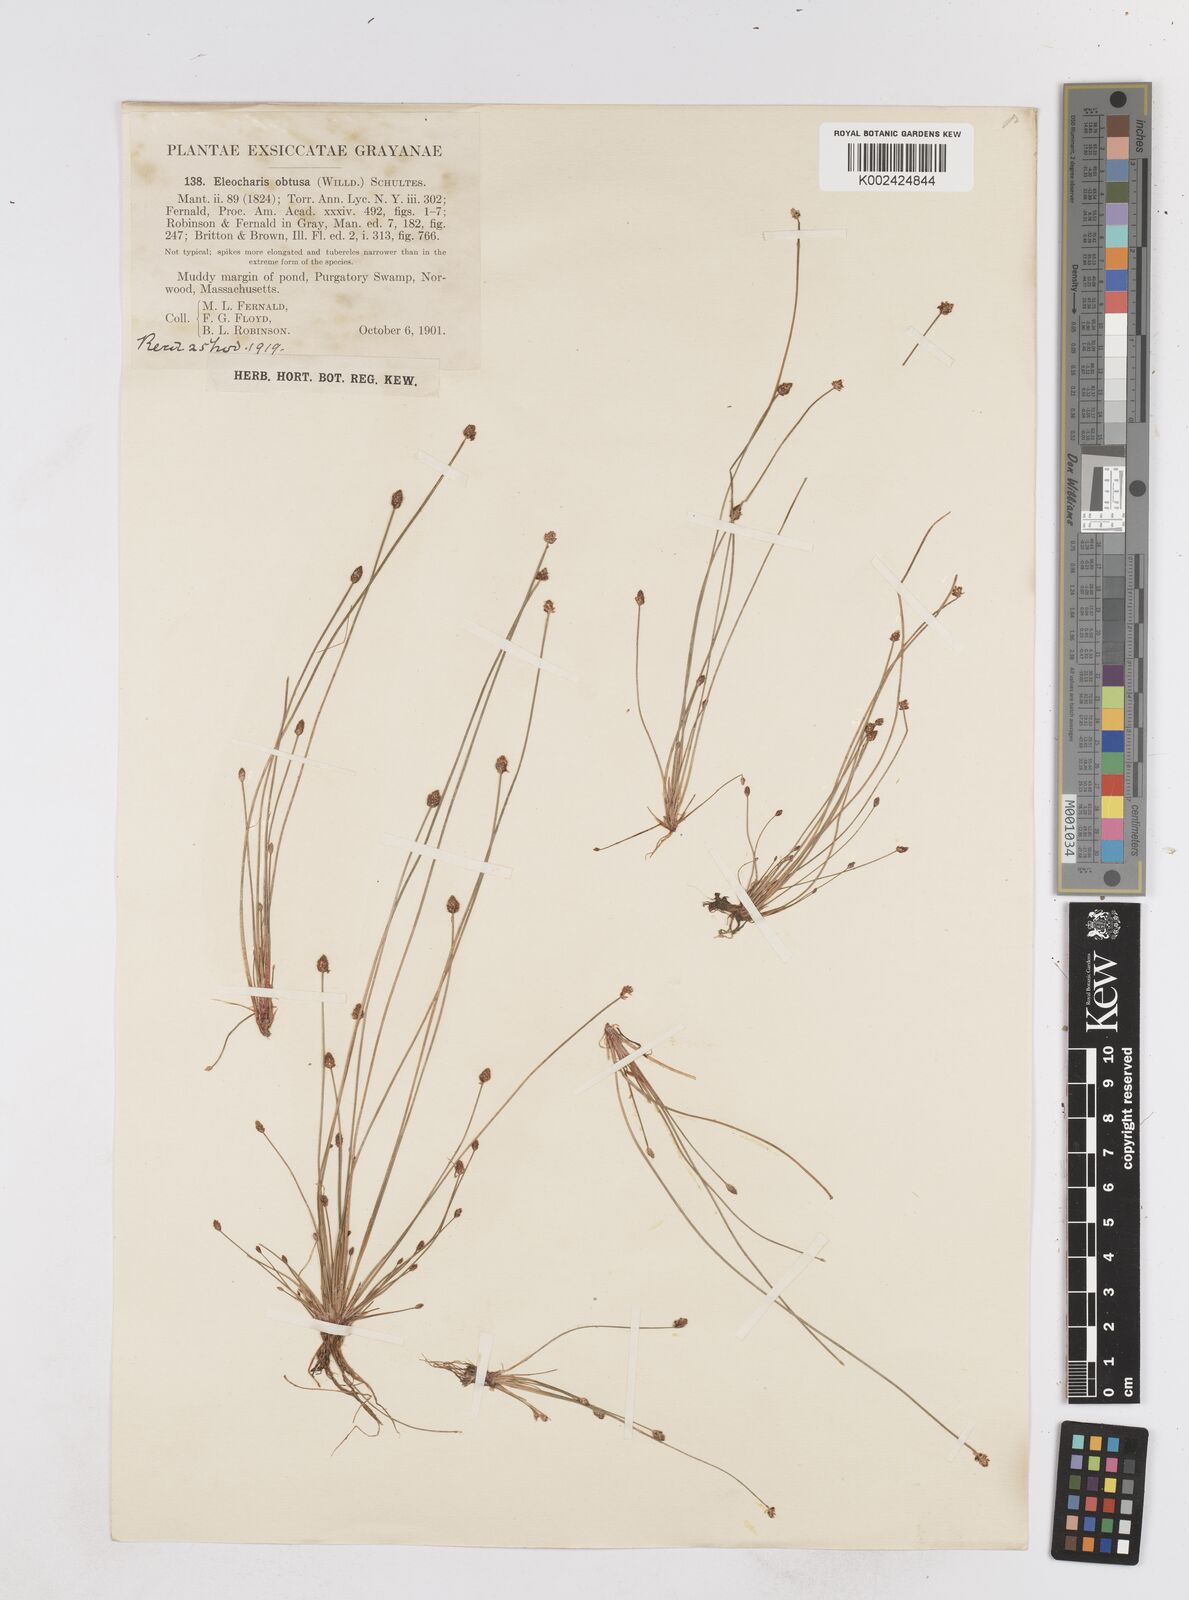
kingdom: Plantae
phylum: Tracheophyta
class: Liliopsida
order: Poales
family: Cyperaceae
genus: Eleocharis
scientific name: Eleocharis obtusa
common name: Blunt spikerush
